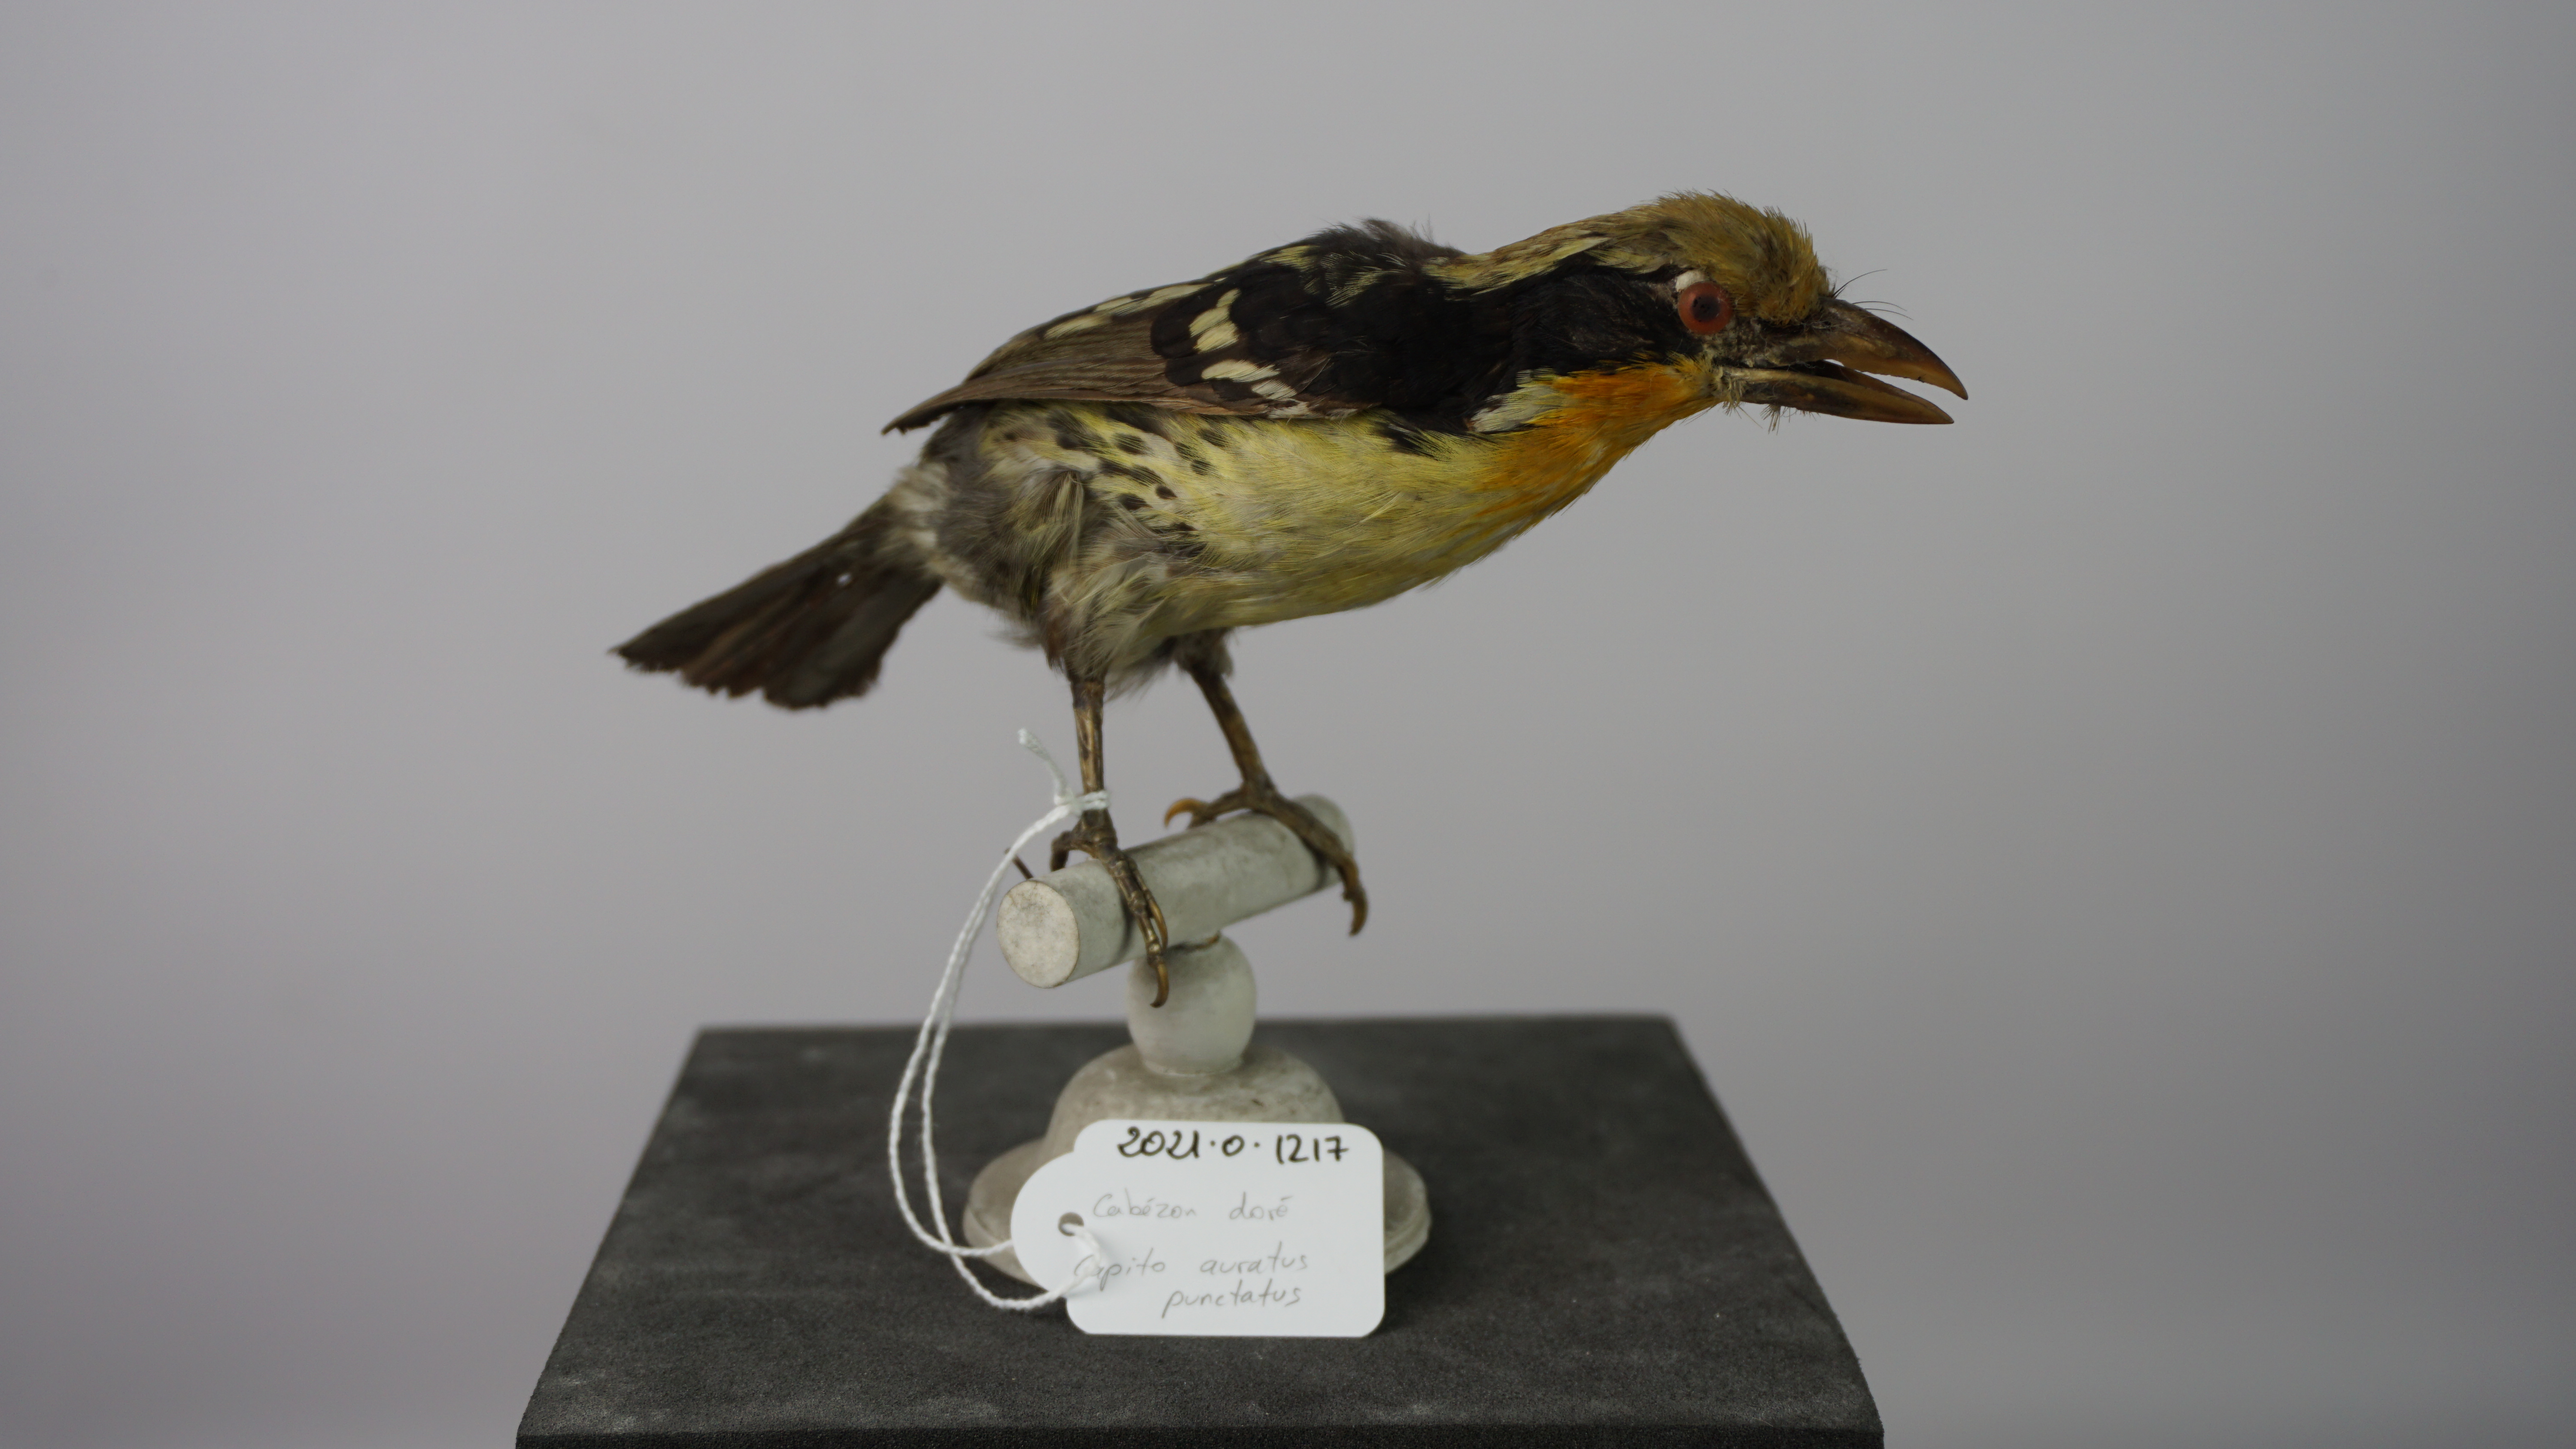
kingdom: Animalia
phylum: Chordata
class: Aves
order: Piciformes
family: Capitonidae
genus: Capito
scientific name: Capito auratus
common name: Gilded barbet
